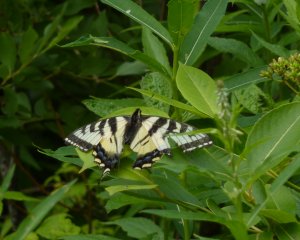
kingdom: Animalia
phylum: Arthropoda
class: Insecta
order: Lepidoptera
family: Papilionidae
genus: Pterourus
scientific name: Pterourus canadensis
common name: Canadian Tiger Swallowtail
